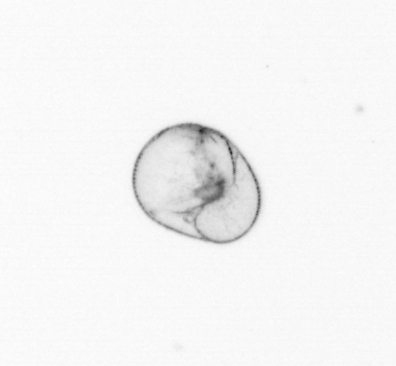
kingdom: Chromista
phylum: Myzozoa
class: Dinophyceae
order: Noctilucales
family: Noctilucaceae
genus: Noctiluca
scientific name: Noctiluca scintillans
